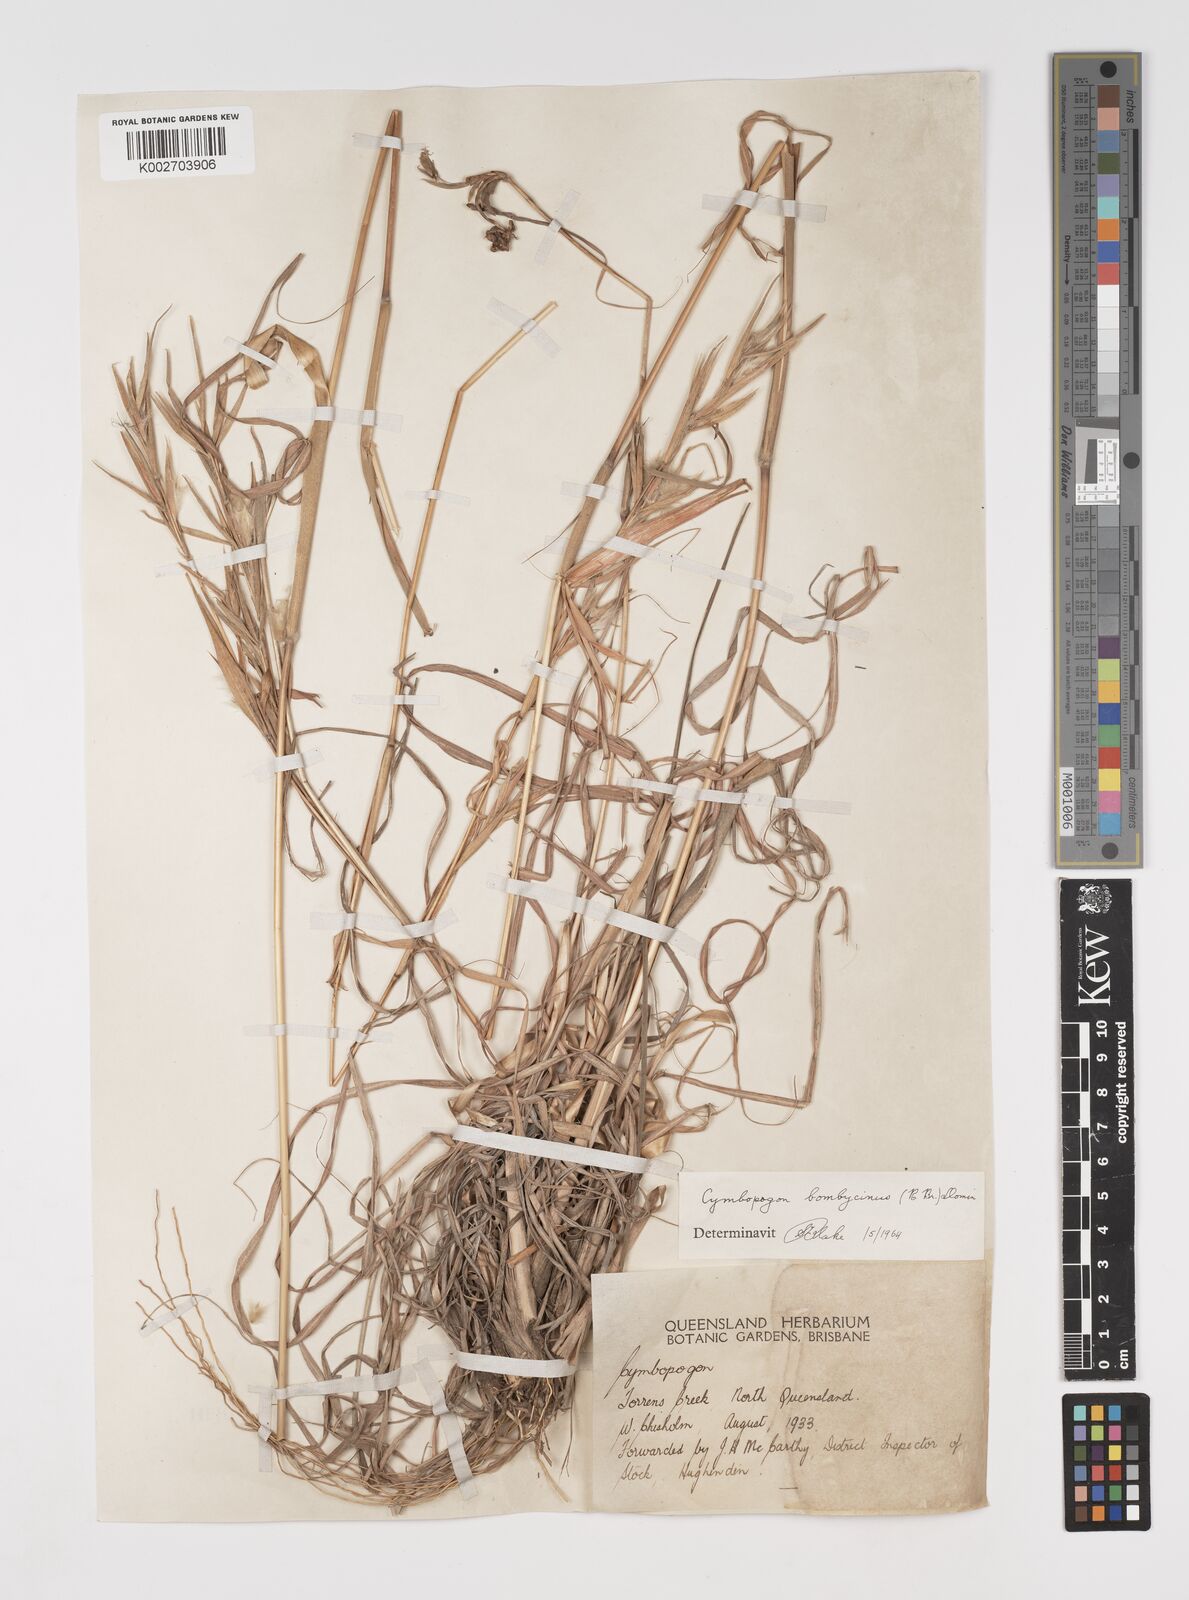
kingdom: Plantae
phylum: Tracheophyta
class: Liliopsida
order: Poales
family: Poaceae
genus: Cymbopogon
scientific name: Cymbopogon bombycinus
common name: Citronella grass
